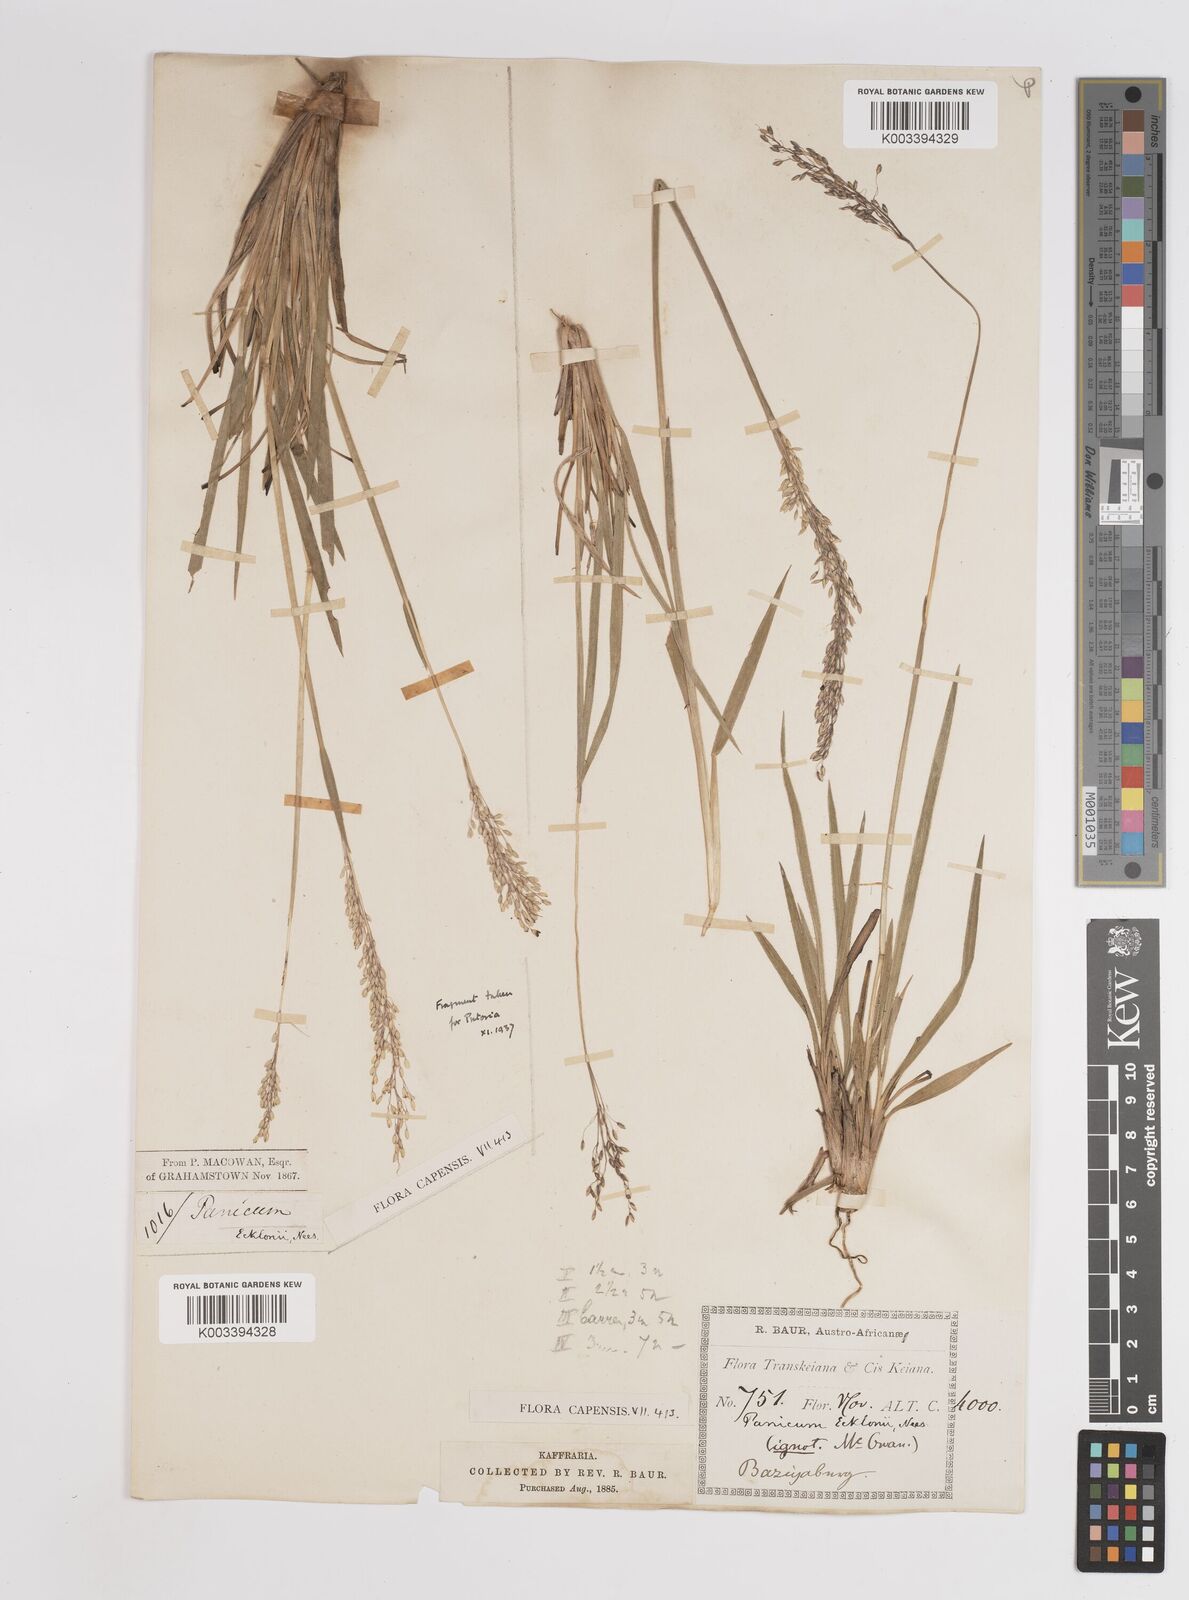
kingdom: Plantae
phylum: Tracheophyta
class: Liliopsida
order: Poales
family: Poaceae
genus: Adenochloa
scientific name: Adenochloa ecklonii
